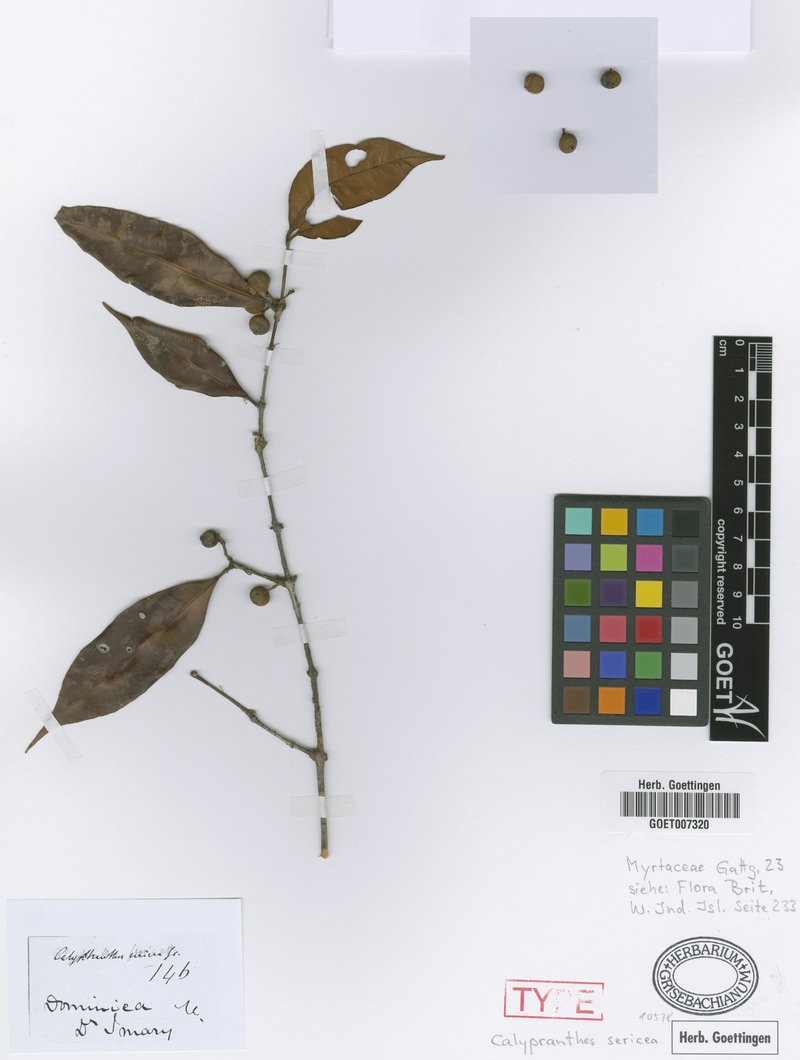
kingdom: Plantae
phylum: Tracheophyta
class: Magnoliopsida
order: Myrtales
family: Myrtaceae
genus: Myrcia
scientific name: Myrcia fasciculata
